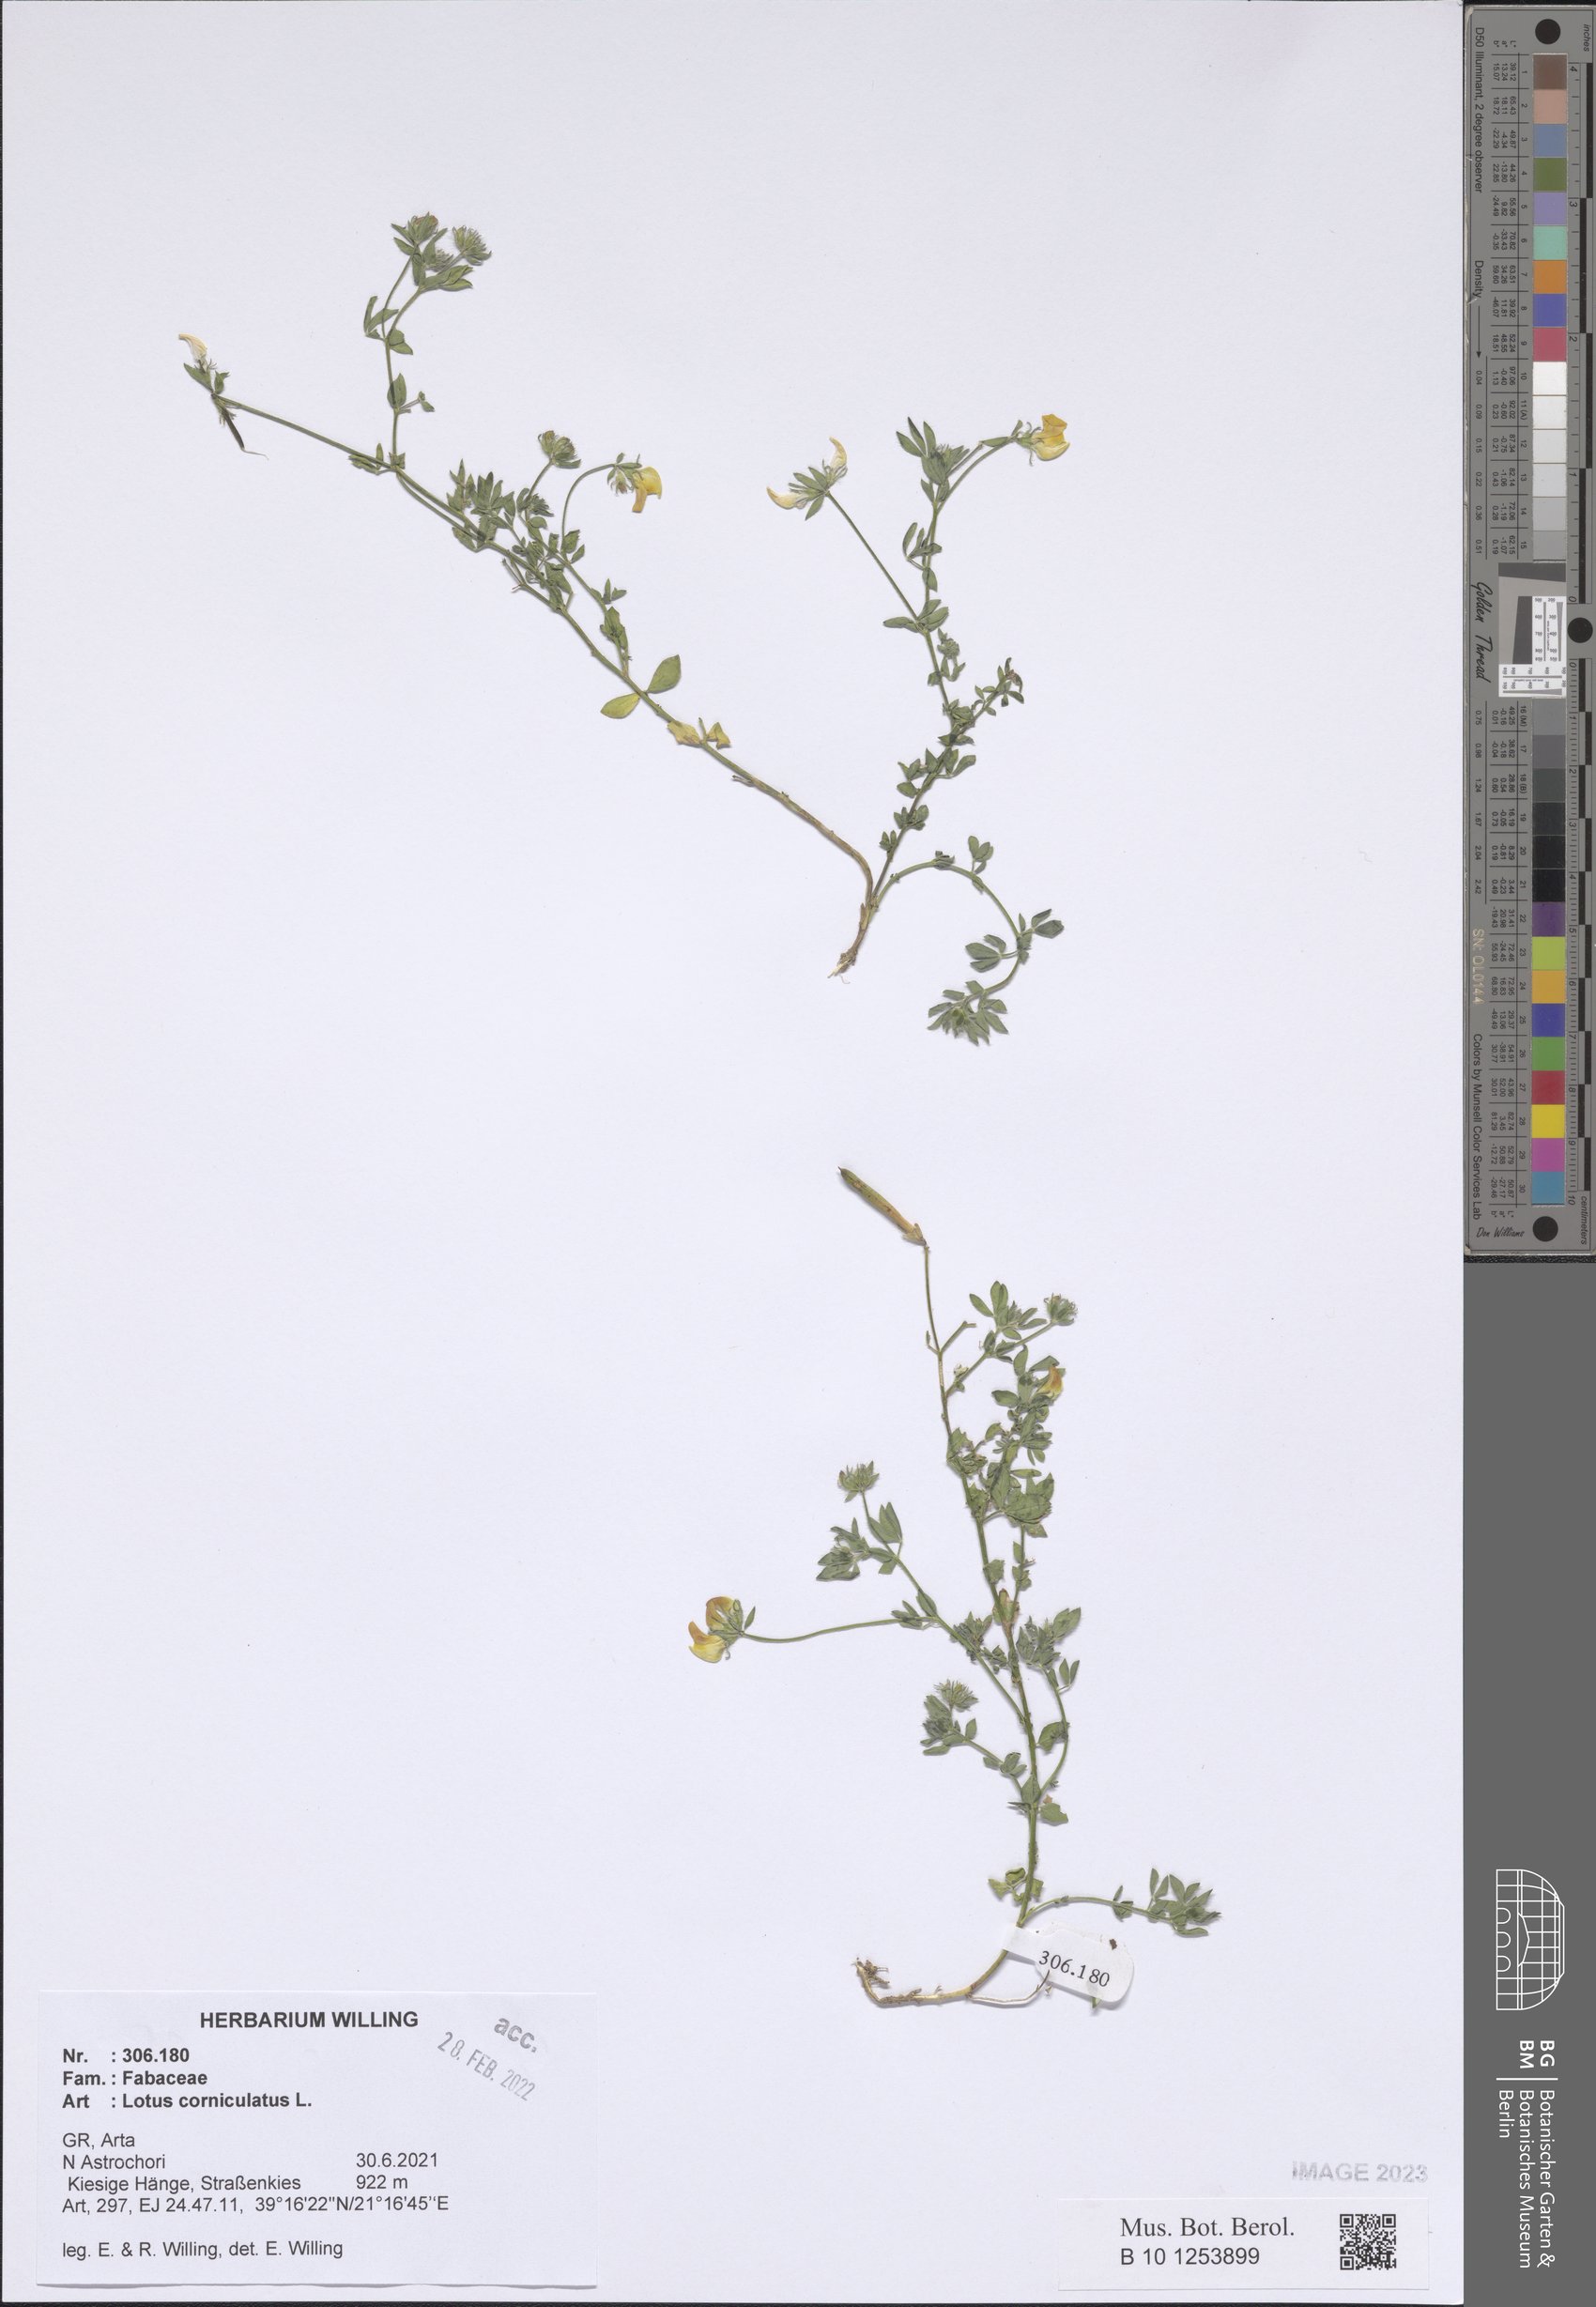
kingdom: Plantae
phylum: Tracheophyta
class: Magnoliopsida
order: Fabales
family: Fabaceae
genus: Lotus
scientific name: Lotus corniculatus
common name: Common bird's-foot-trefoil
